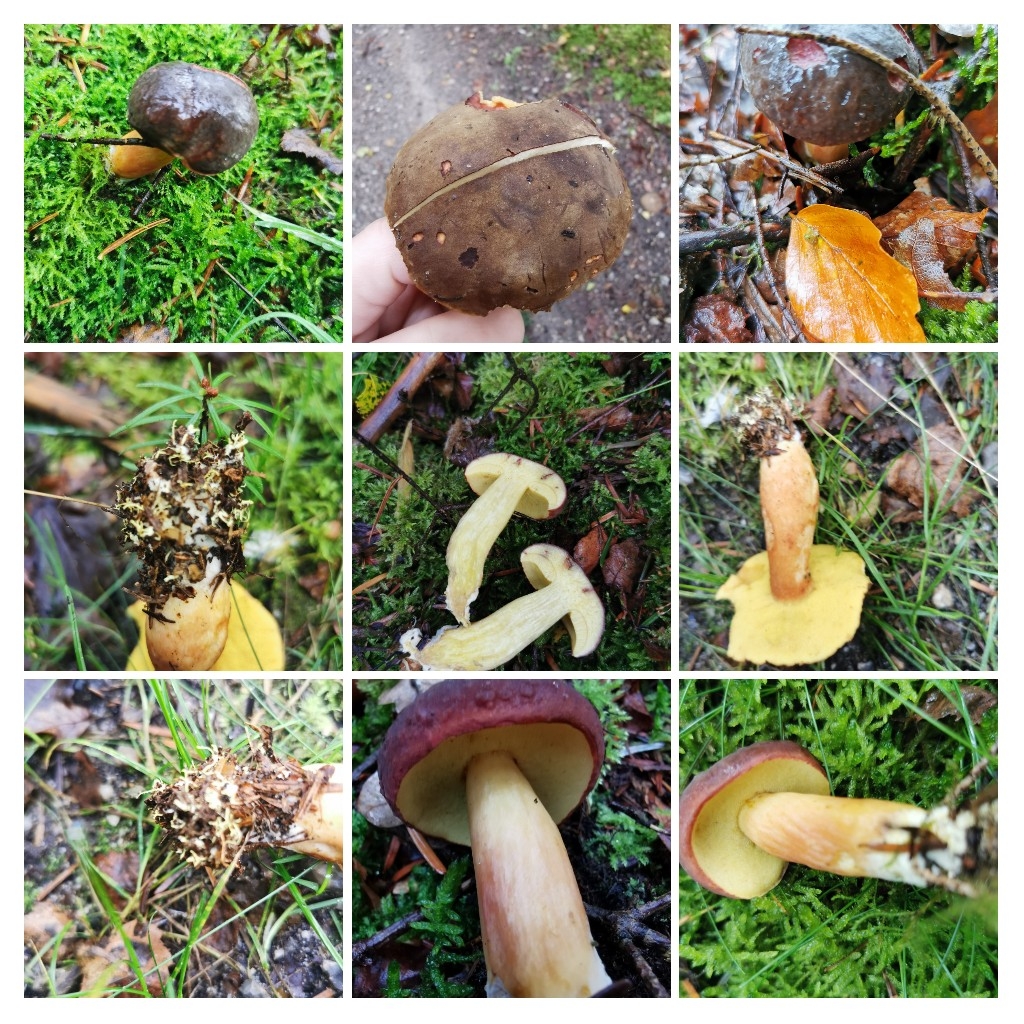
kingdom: Fungi
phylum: Basidiomycota
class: Agaricomycetes
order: Boletales
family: Boletaceae
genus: Xerocomellus
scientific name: Xerocomellus pruinatus
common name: dugget rørhat
